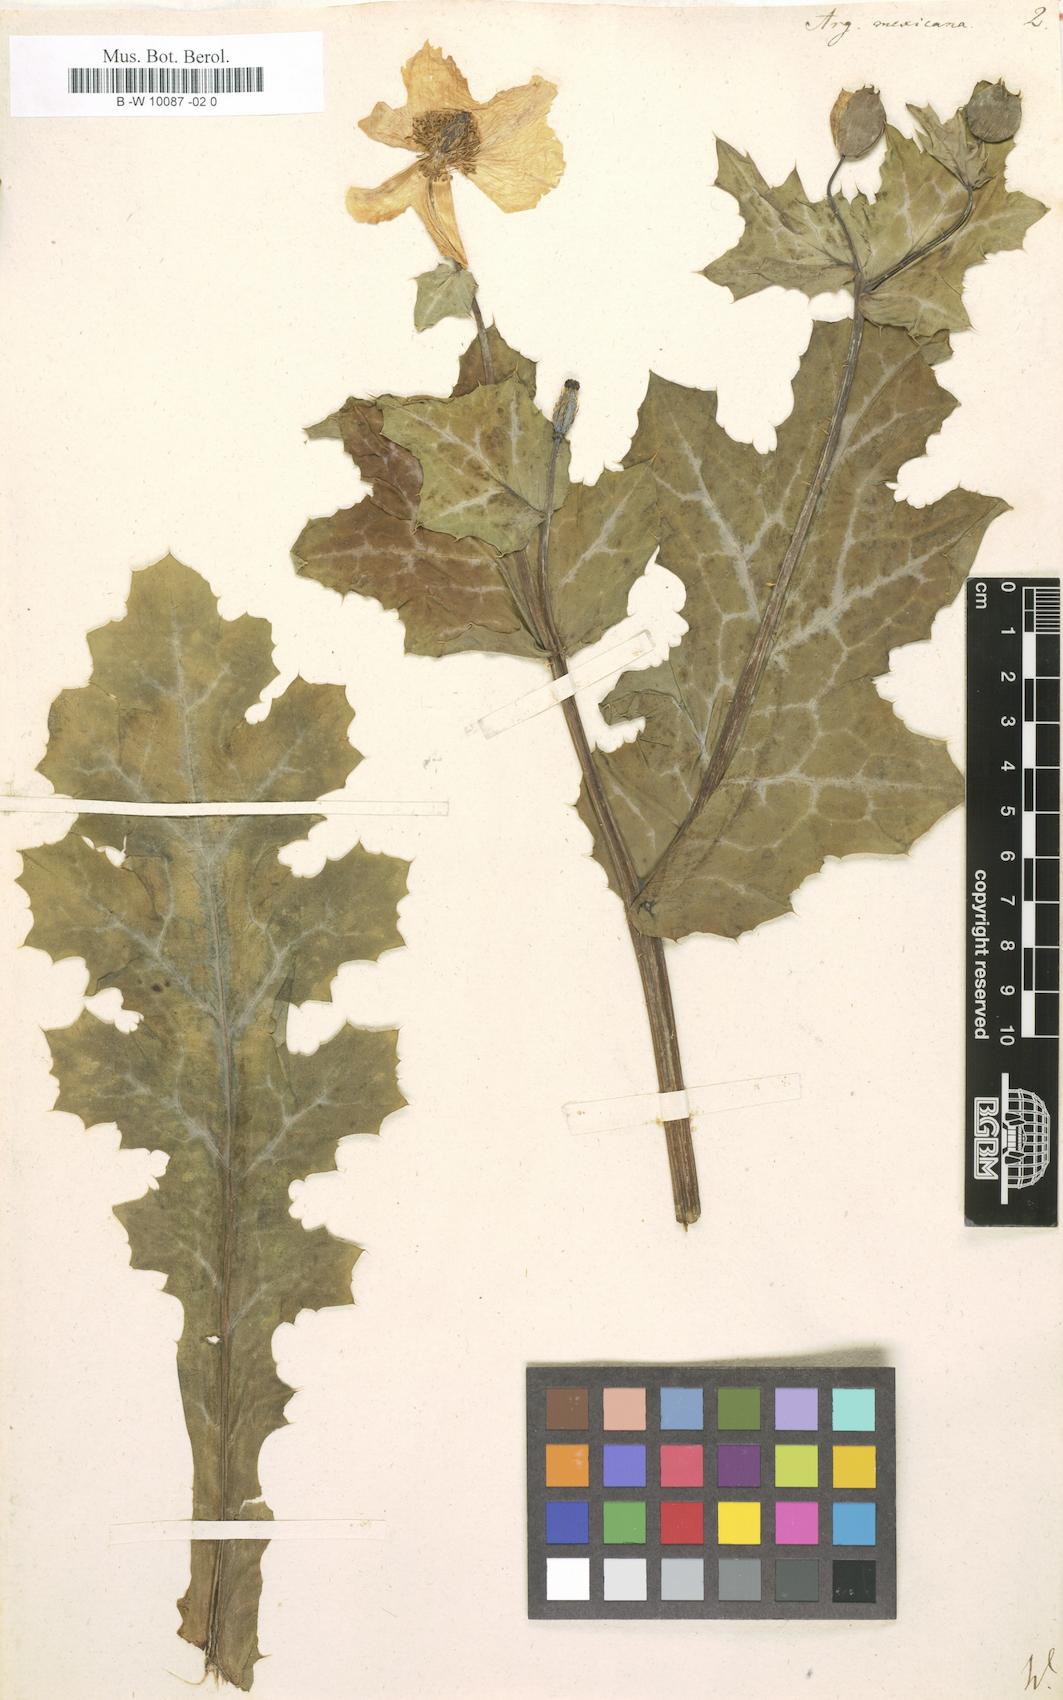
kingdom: Plantae
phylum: Tracheophyta
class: Magnoliopsida
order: Ranunculales
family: Papaveraceae
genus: Argemone
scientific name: Argemone mexicana
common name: Mexican poppy
